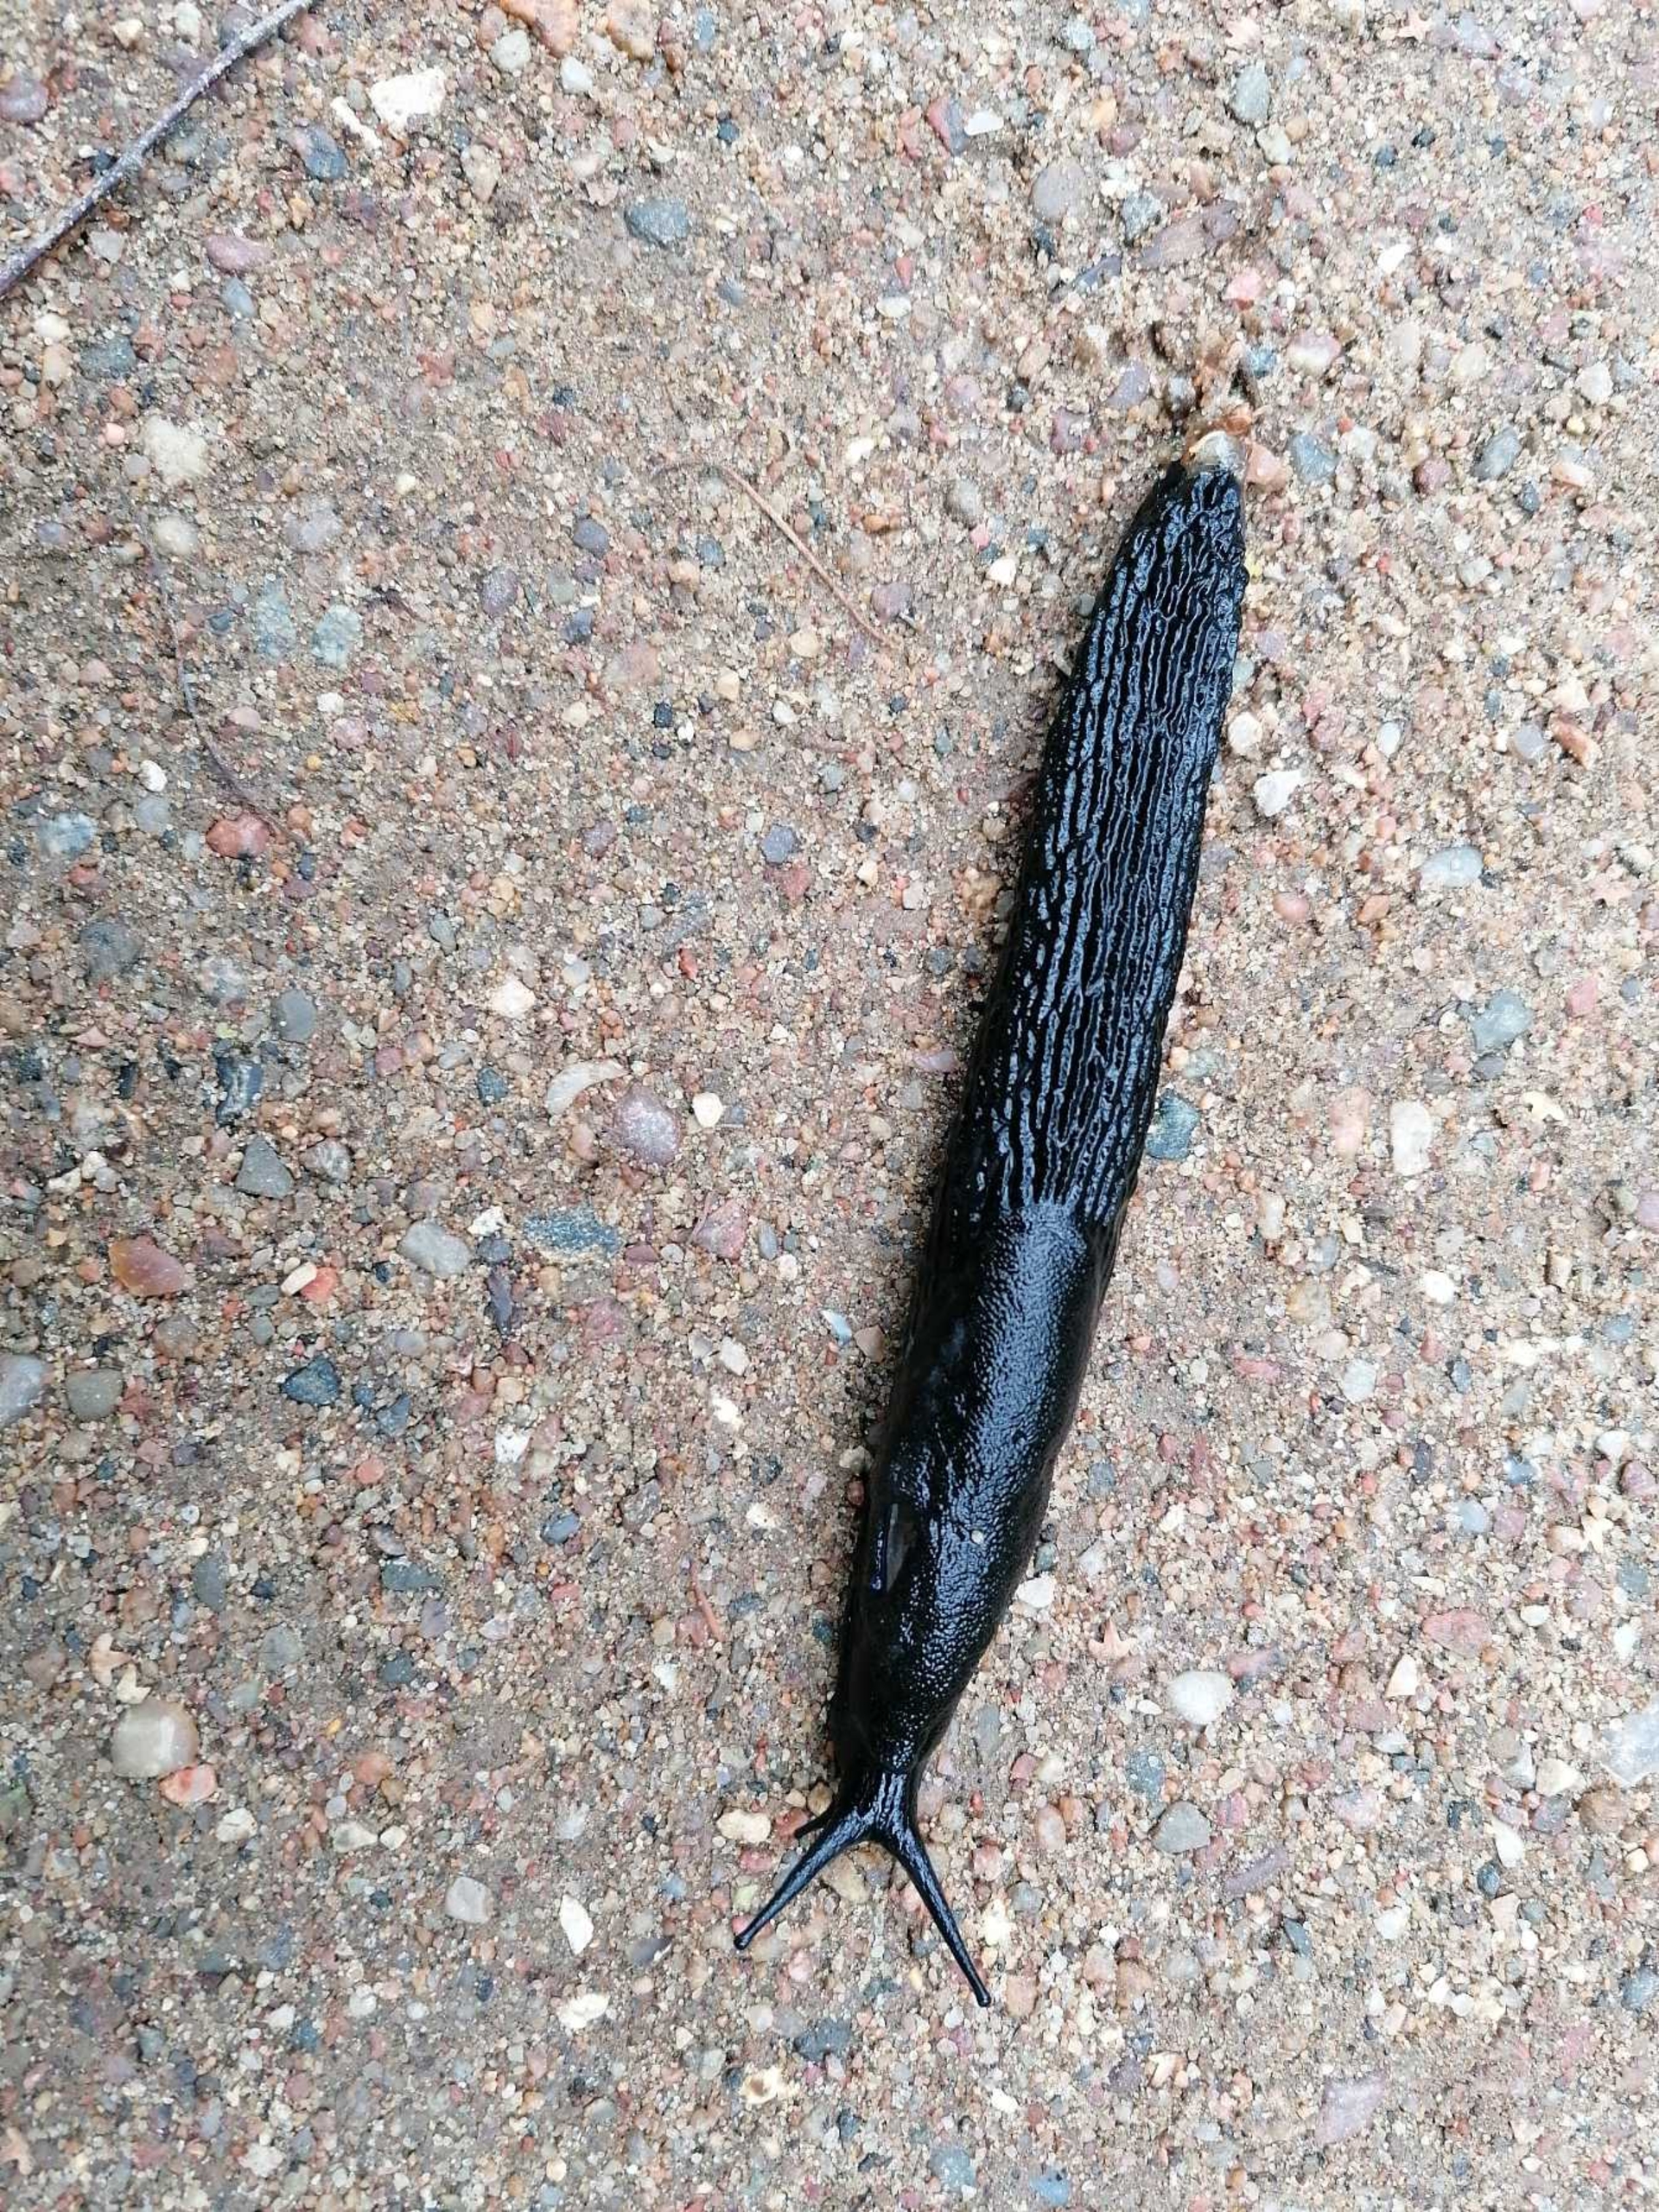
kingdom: Animalia
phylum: Mollusca
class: Gastropoda
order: Stylommatophora
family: Arionidae
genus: Arion
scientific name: Arion ater
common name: Sort skovsnegl
